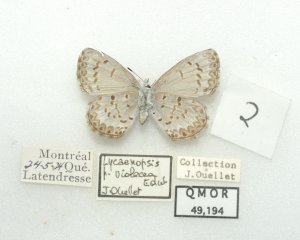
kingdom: Animalia
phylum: Arthropoda
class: Insecta
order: Lepidoptera
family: Lycaenidae
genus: Celastrina
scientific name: Celastrina lucia
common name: Northern Spring Azure
